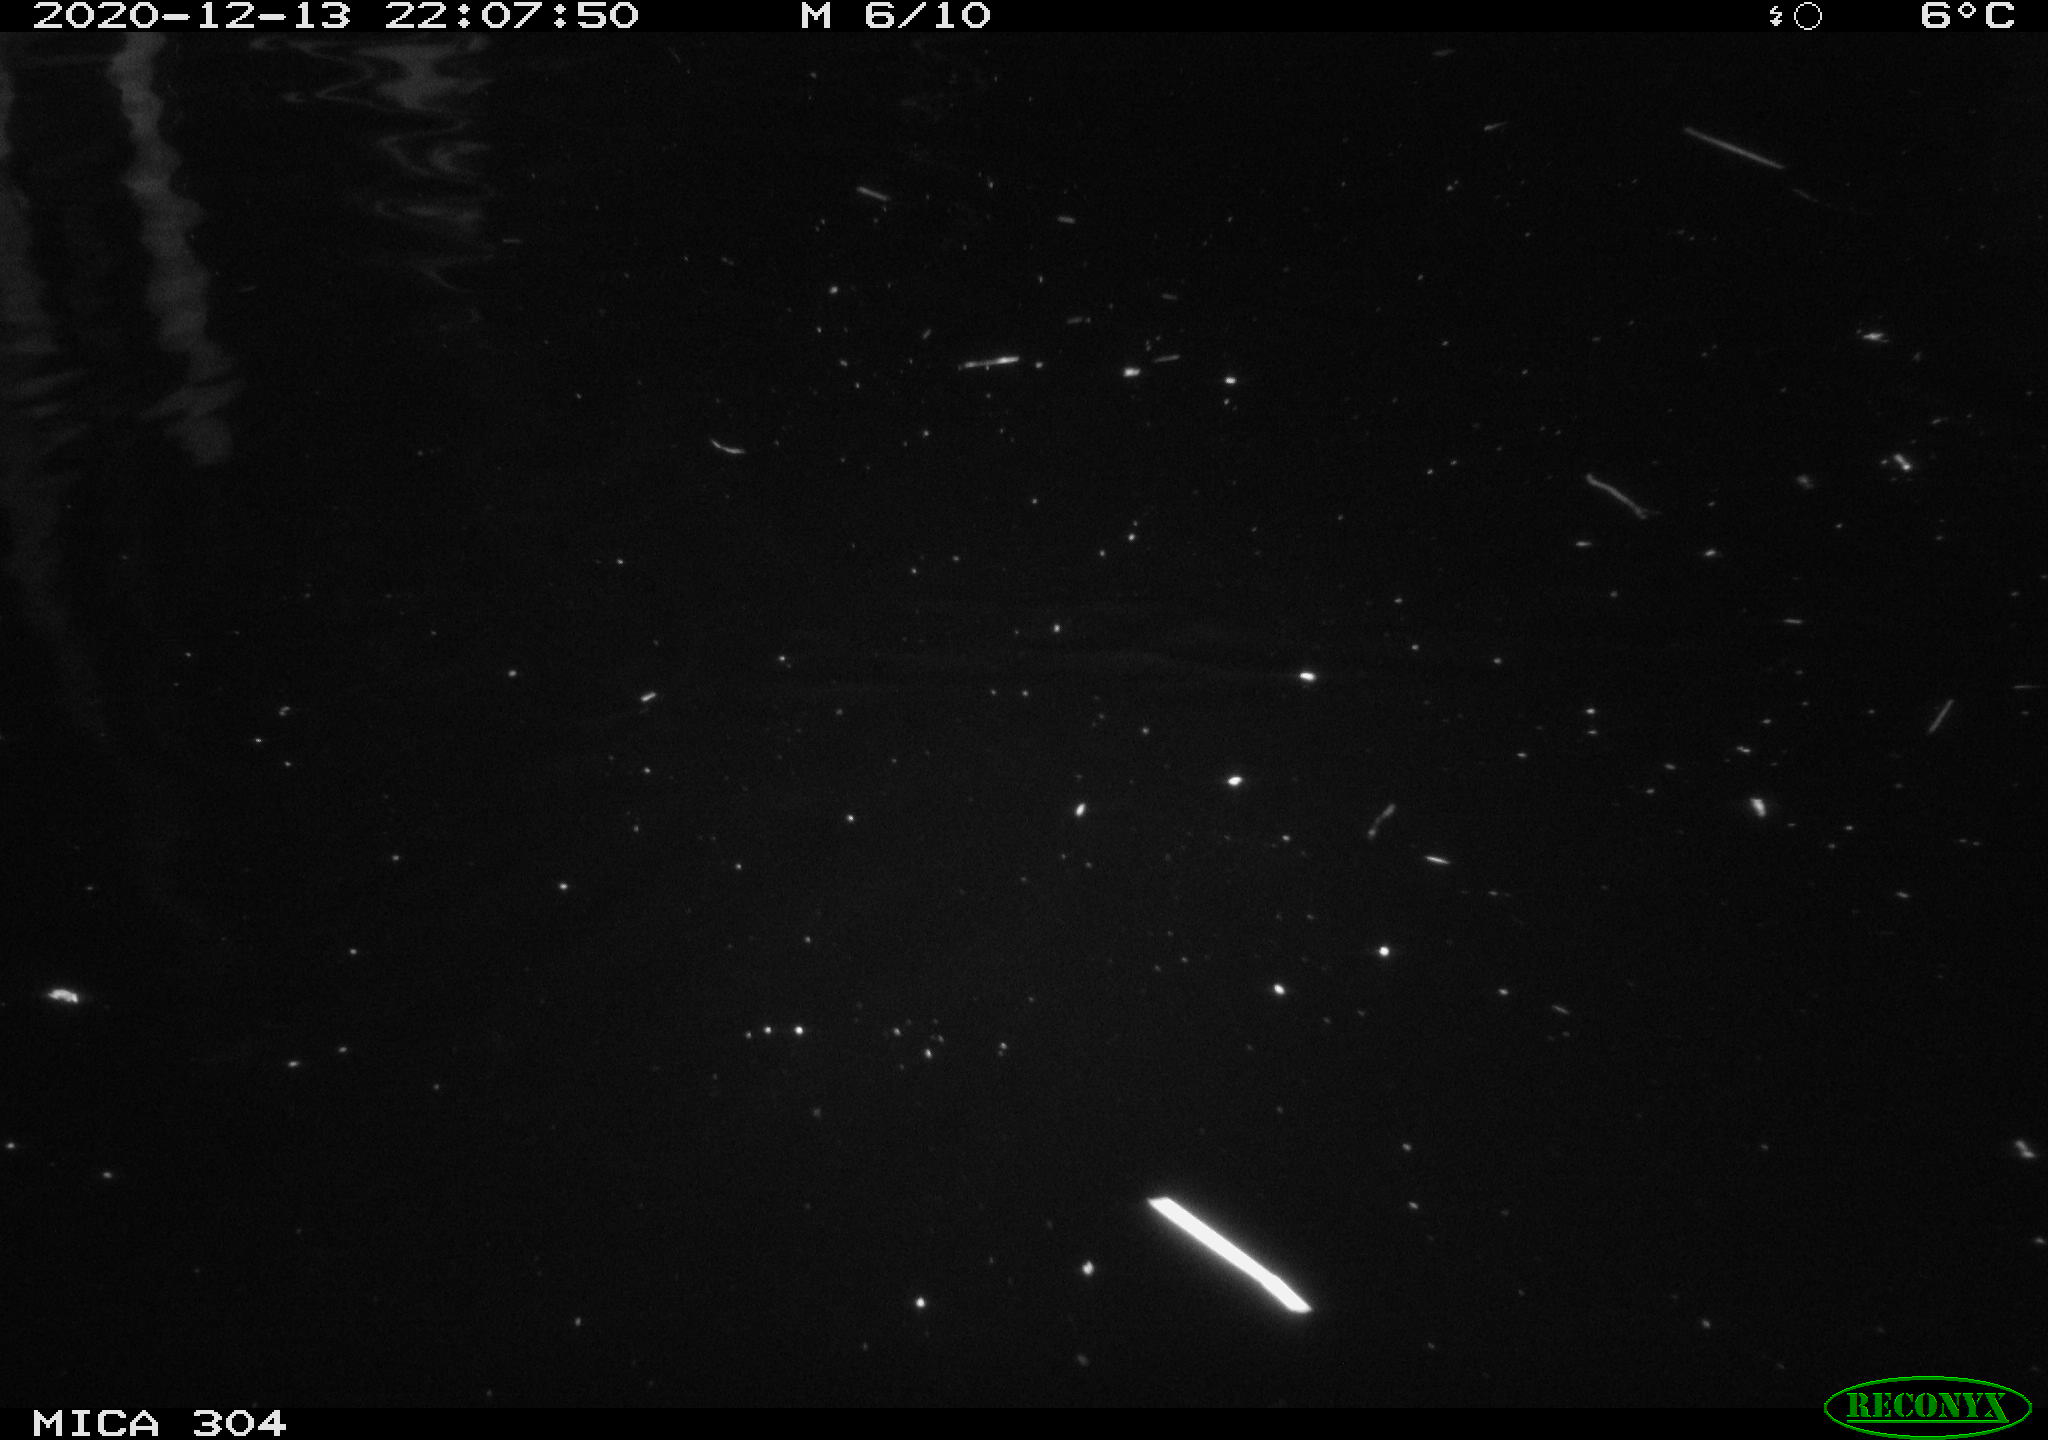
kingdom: Animalia
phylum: Chordata
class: Mammalia
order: Rodentia
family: Muridae
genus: Rattus
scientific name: Rattus norvegicus
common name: Brown rat
